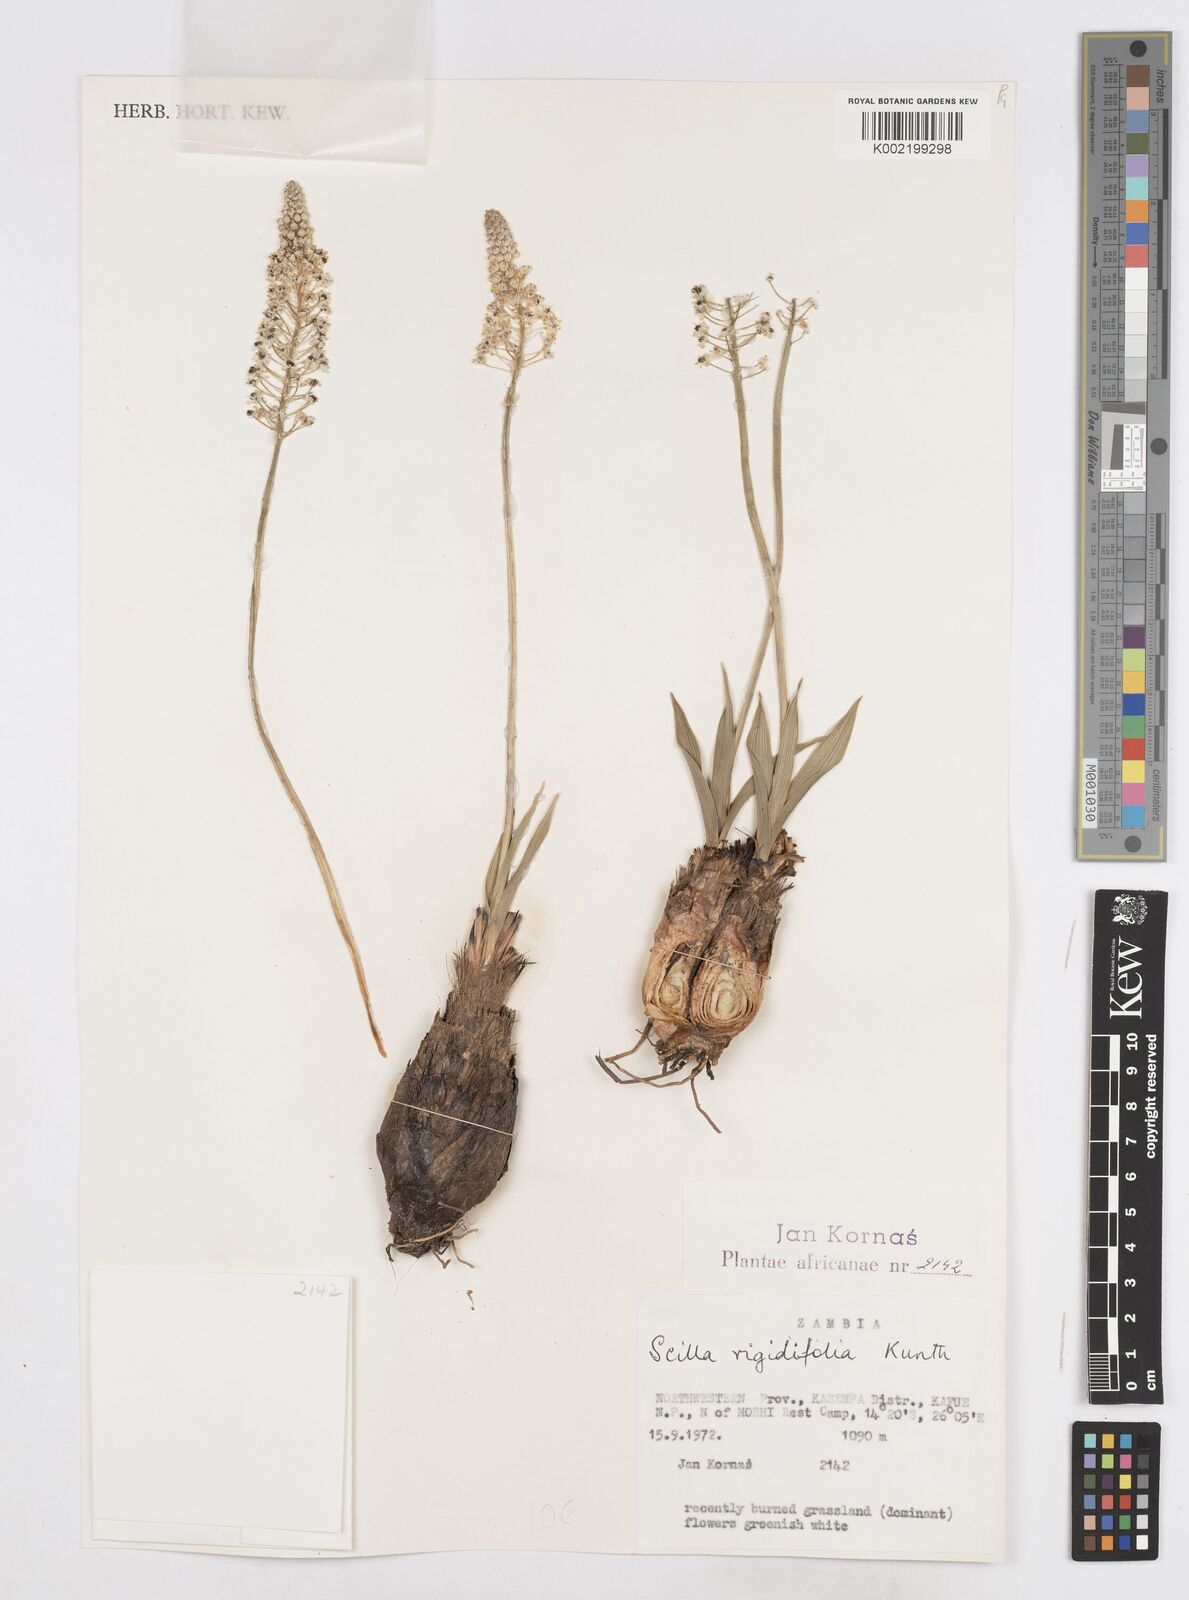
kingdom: Plantae
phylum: Tracheophyta
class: Liliopsida
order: Asparagales
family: Asparagaceae
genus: Schizocarphus
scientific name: Schizocarphus nervosus
